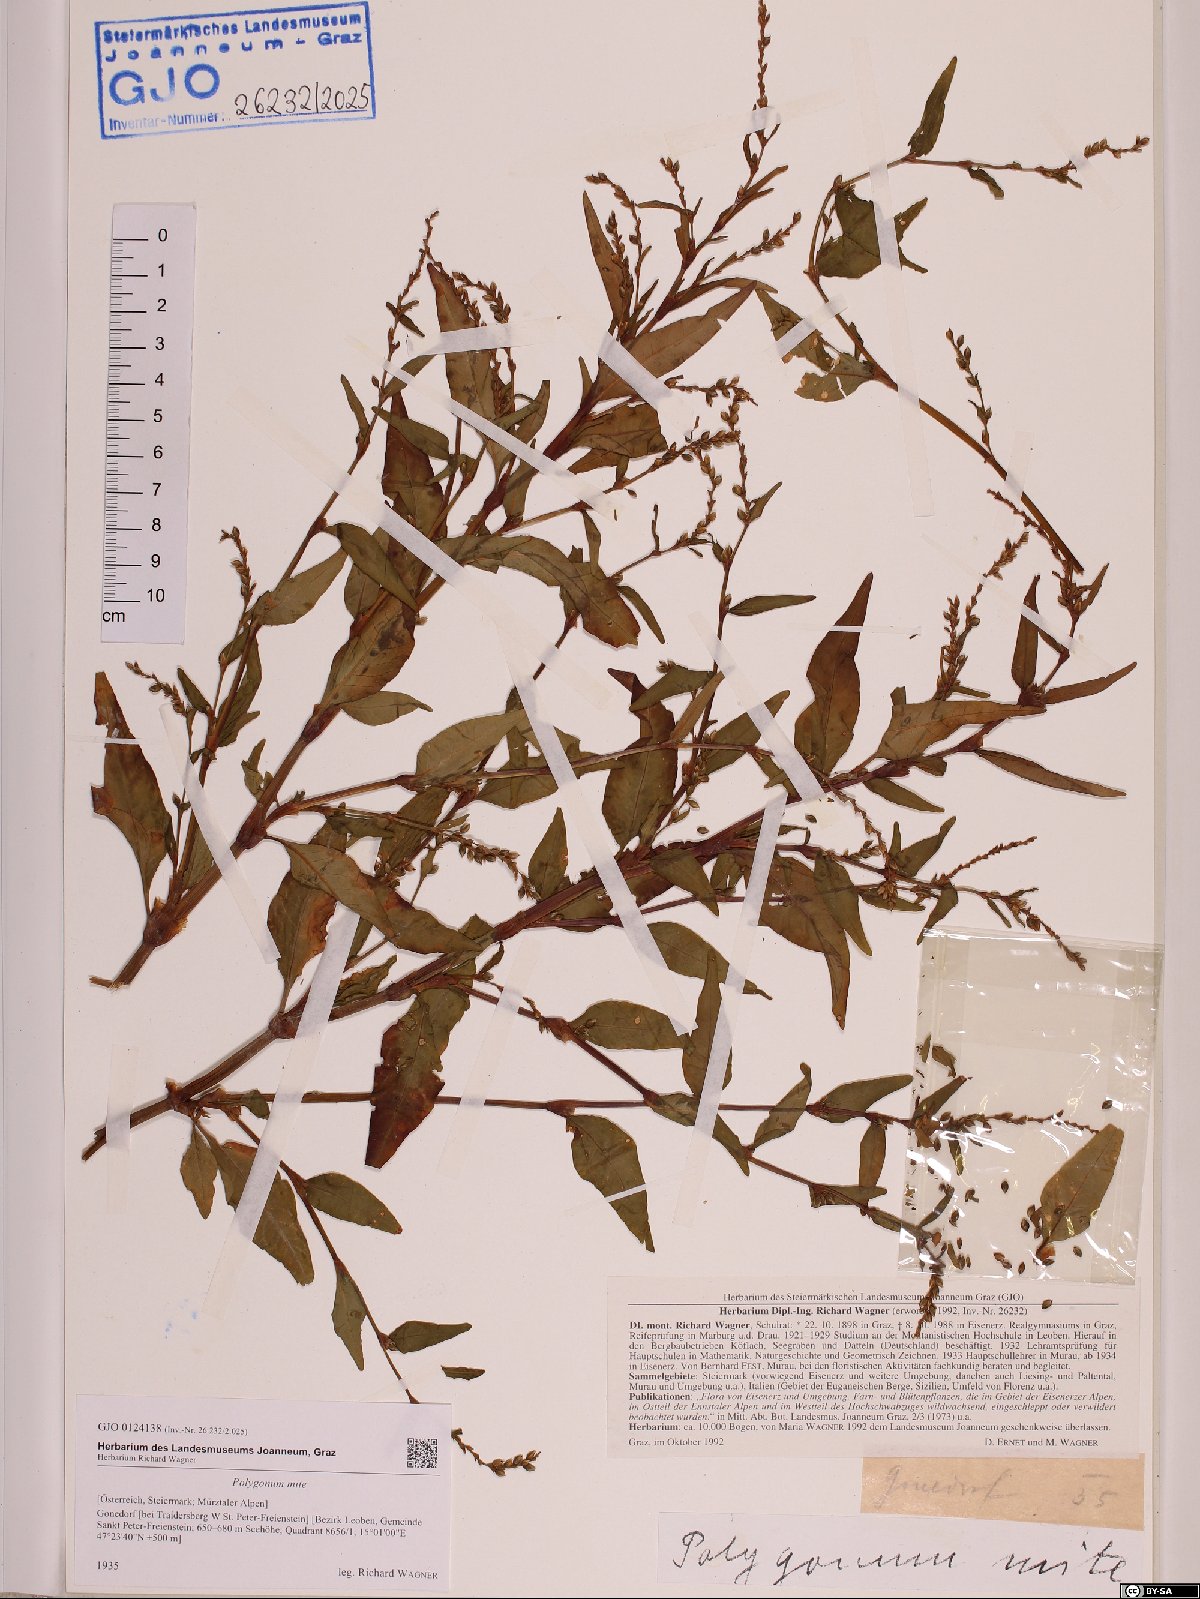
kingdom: Plantae
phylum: Tracheophyta
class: Magnoliopsida
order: Caryophyllales
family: Polygonaceae
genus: Persicaria
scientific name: Persicaria mitis
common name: Tasteless water-pepper
